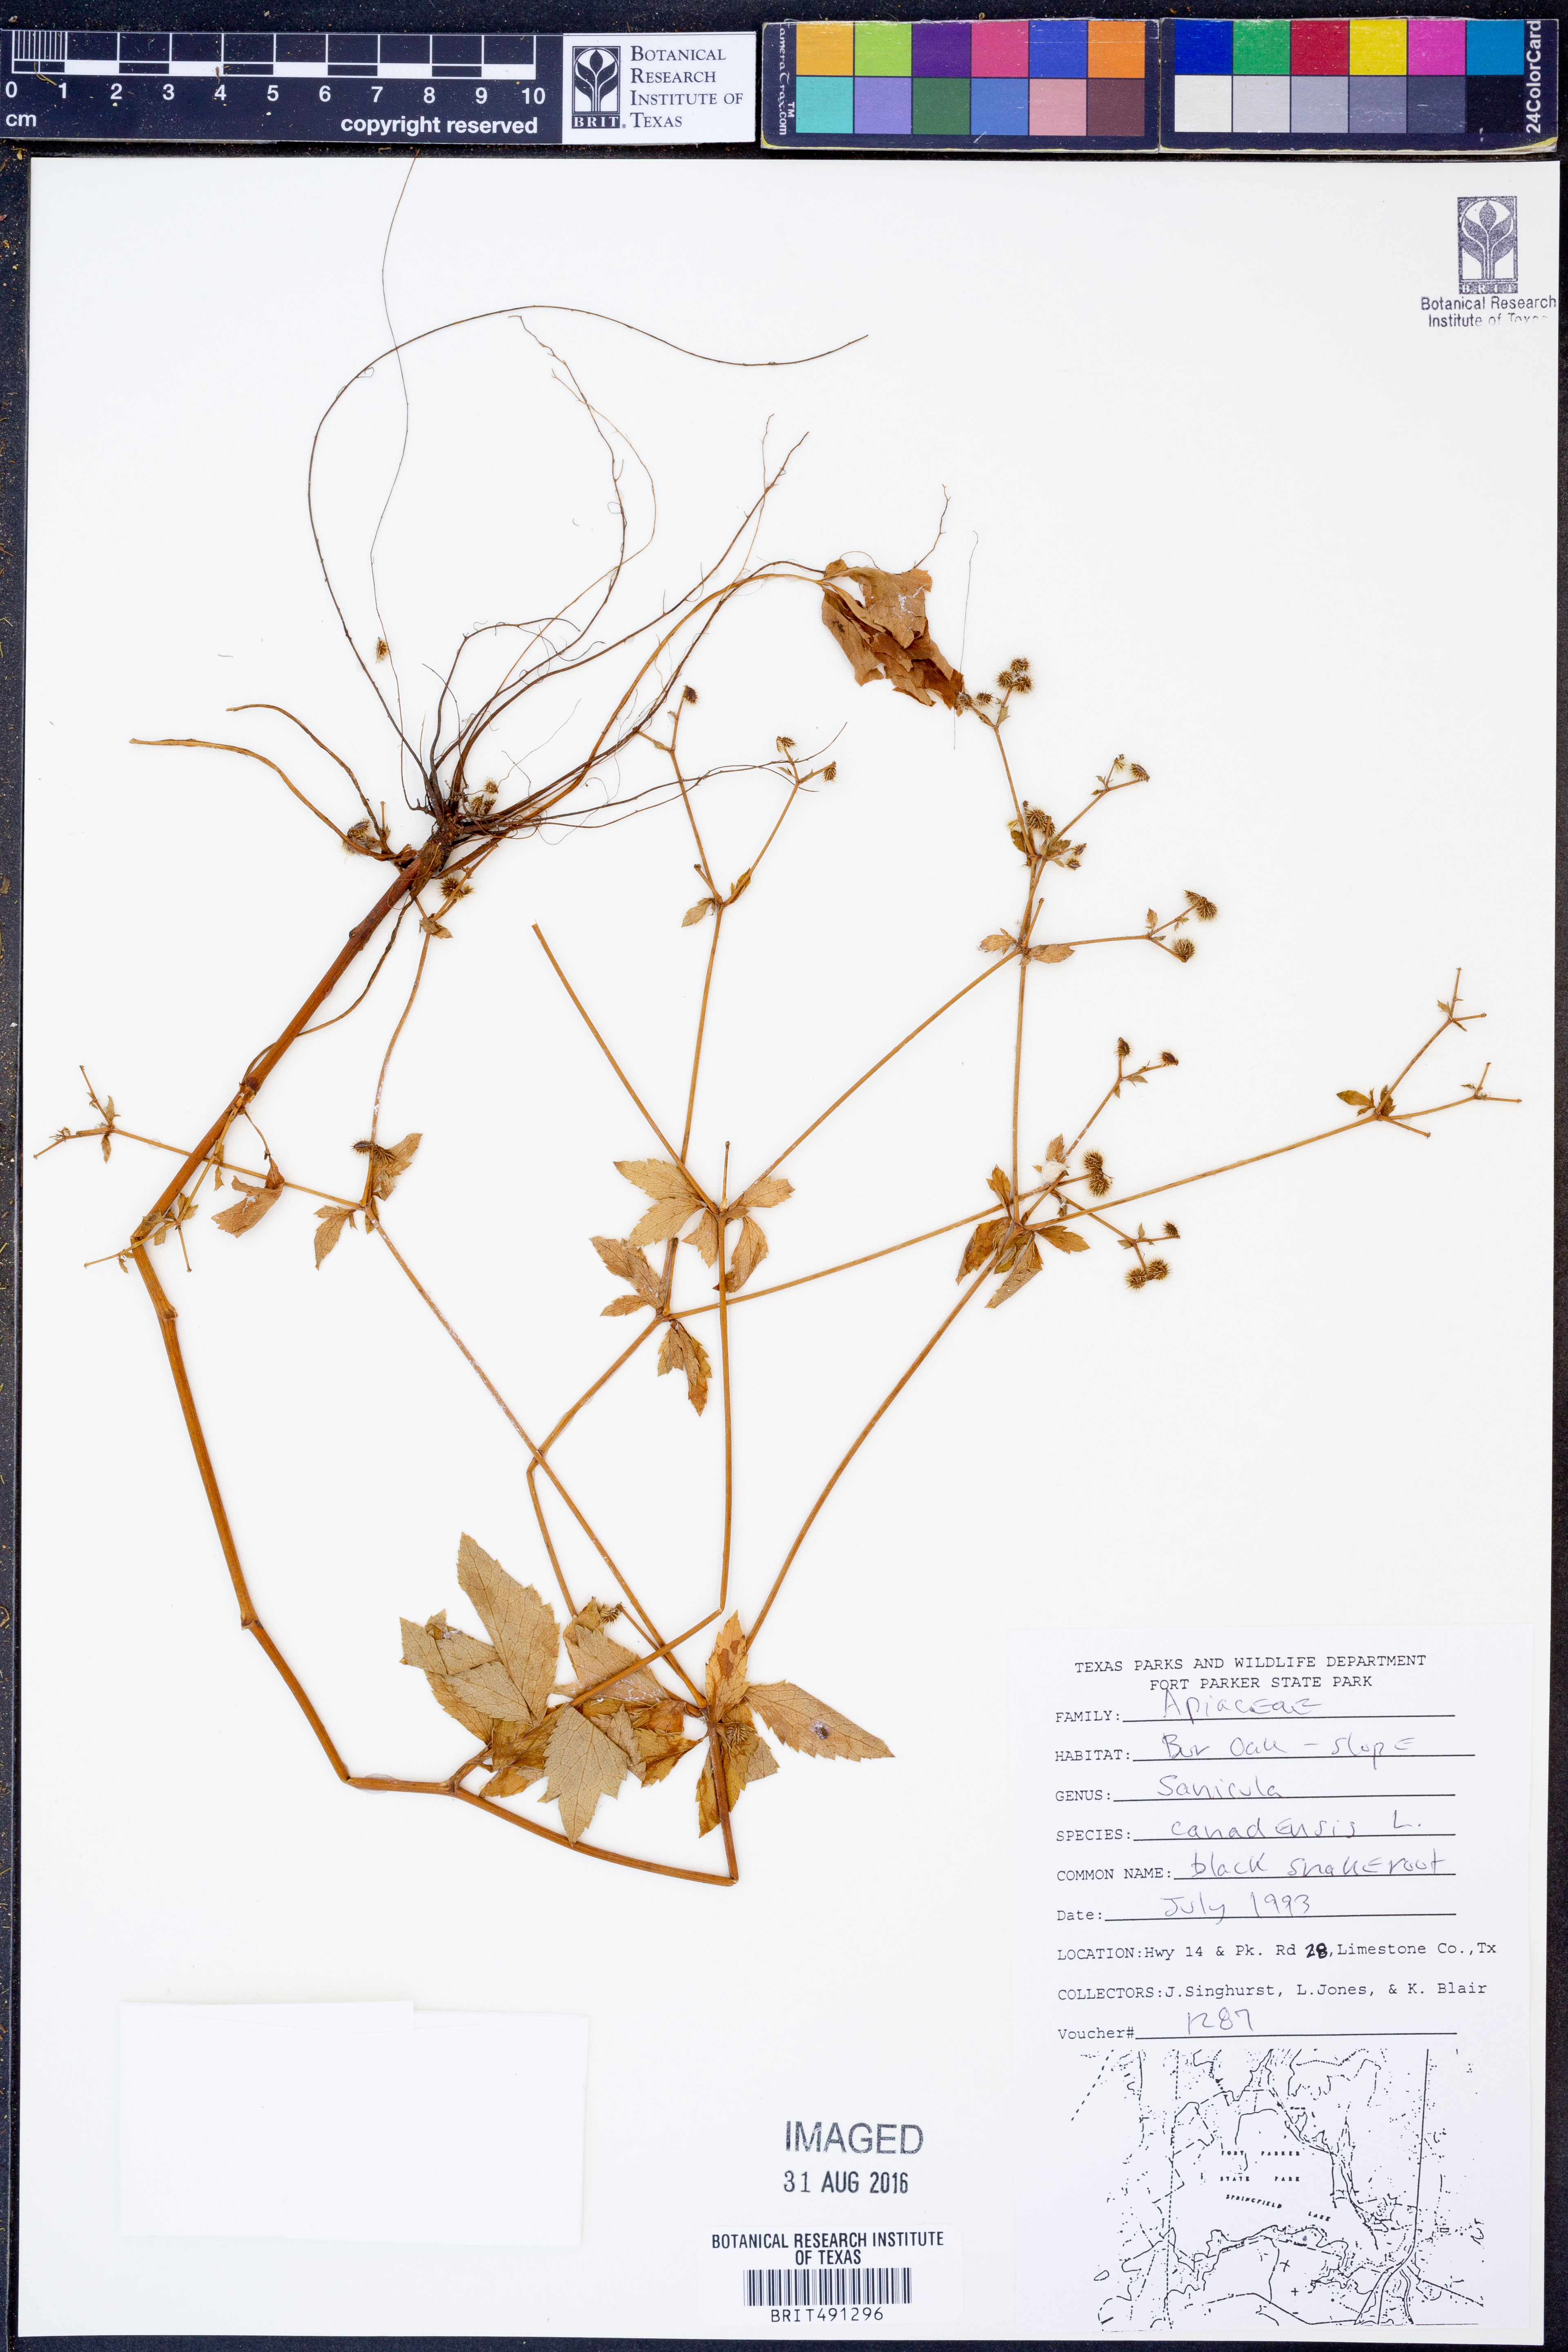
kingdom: Plantae
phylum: Tracheophyta
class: Magnoliopsida
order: Apiales
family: Apiaceae
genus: Sanicula
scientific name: Sanicula canadensis
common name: Canada sanicle
